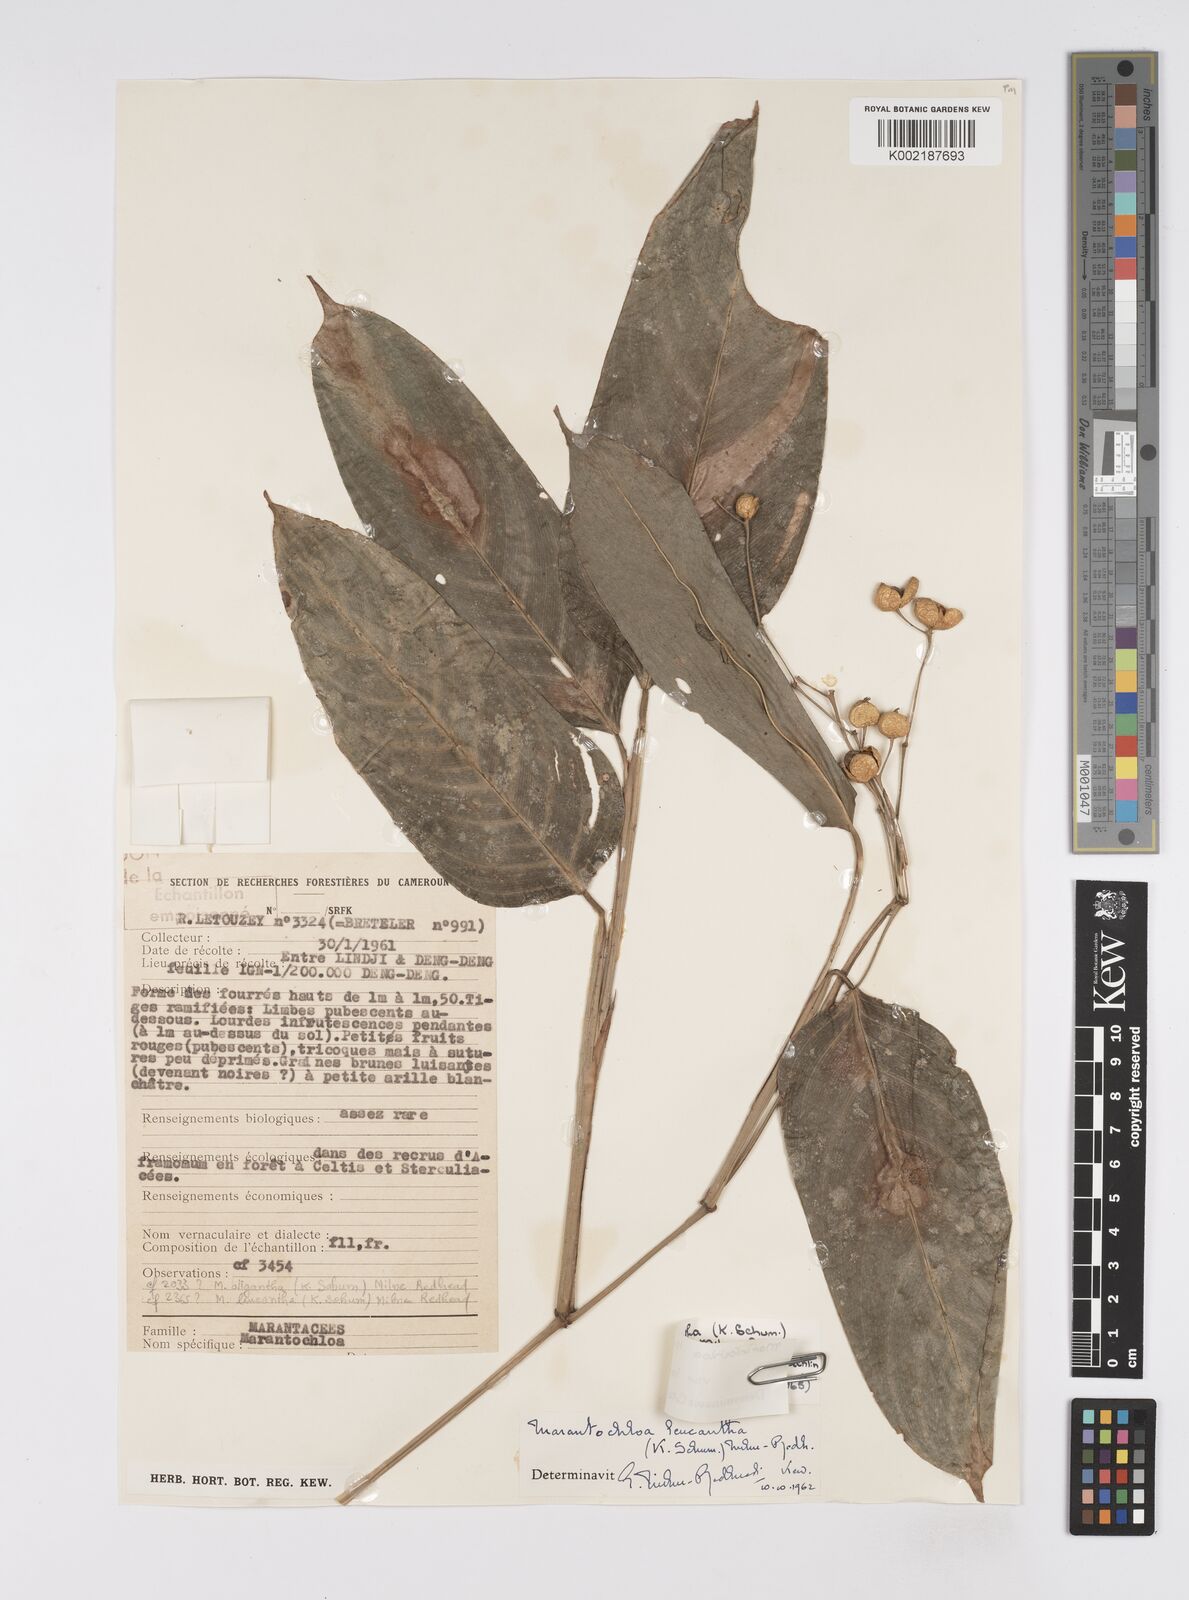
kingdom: Plantae
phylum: Tracheophyta
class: Liliopsida
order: Zingiberales
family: Marantaceae
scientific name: Marantaceae
